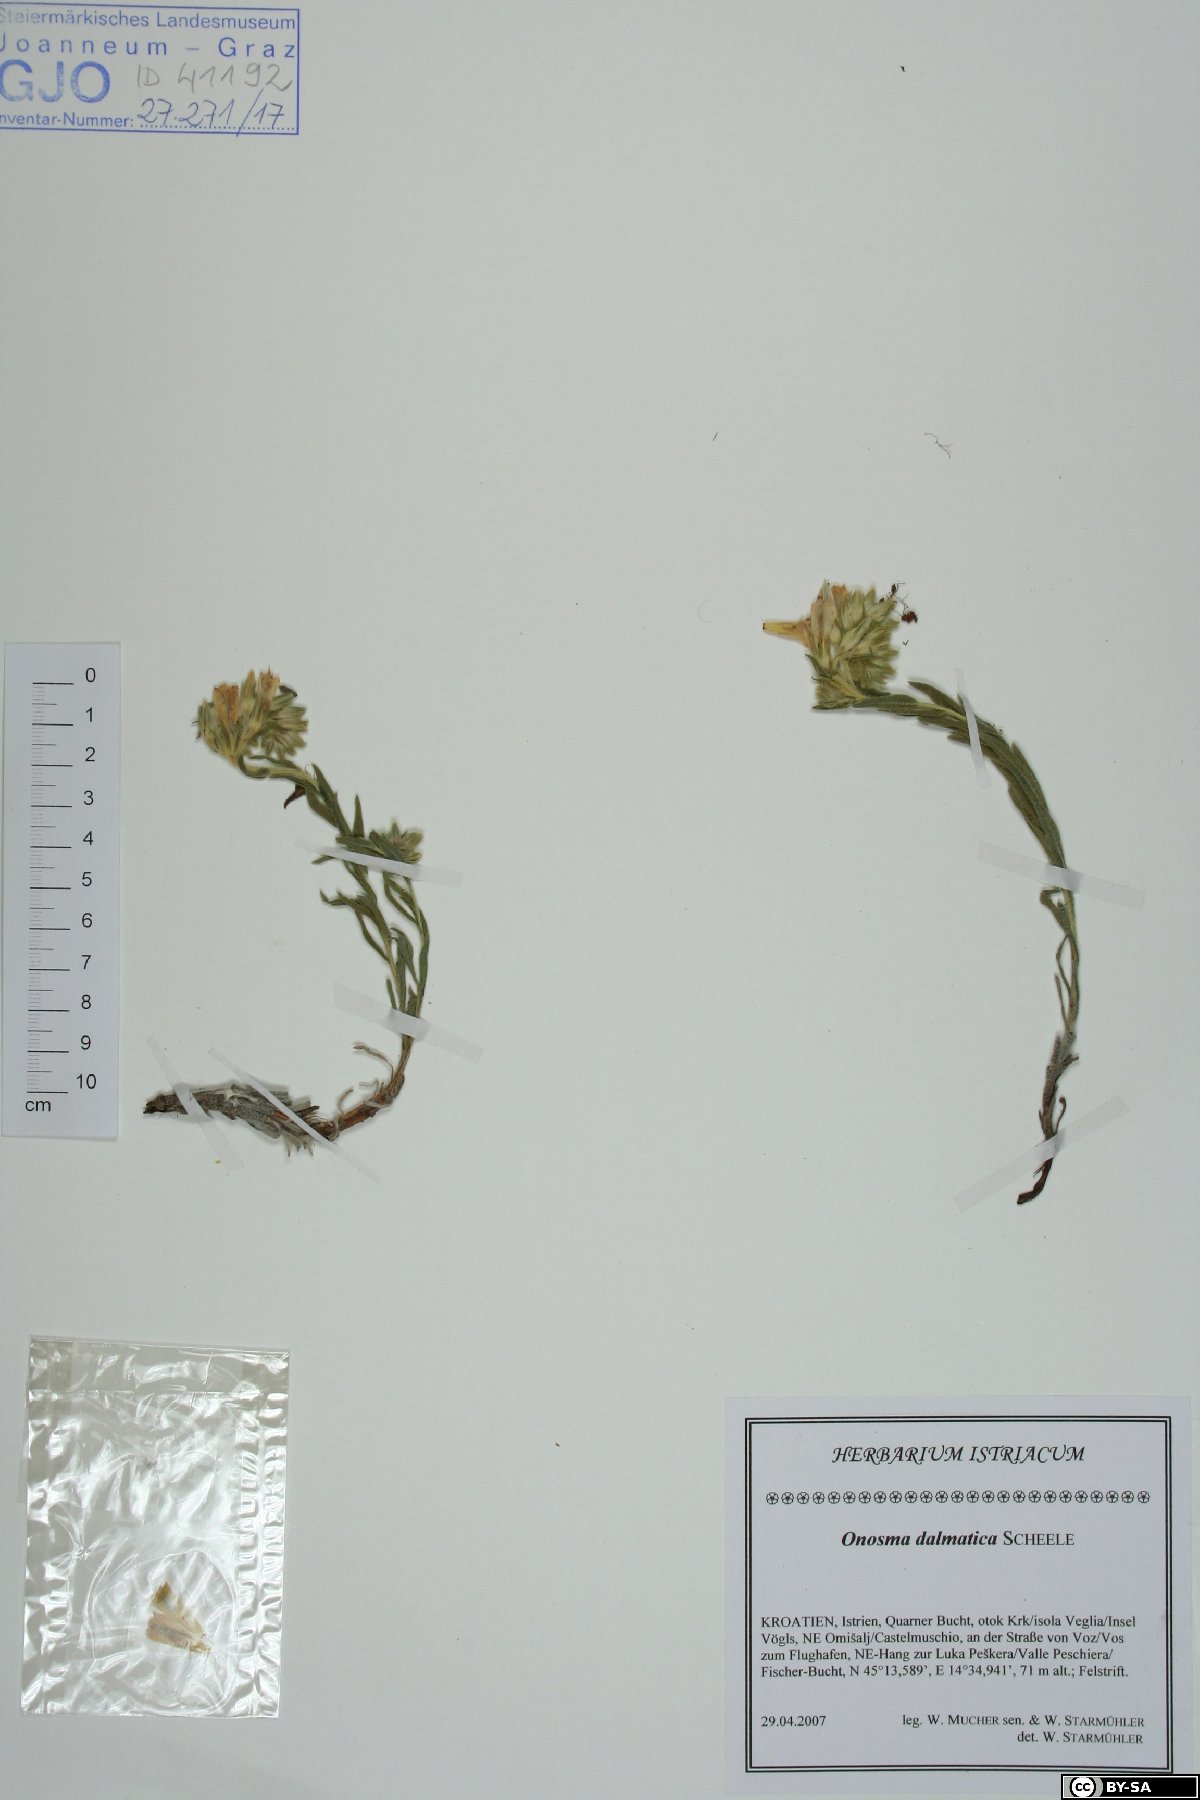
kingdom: Plantae
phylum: Tracheophyta
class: Magnoliopsida
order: Boraginales
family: Boraginaceae
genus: Onosma
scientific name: Onosma echioides
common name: Goldendrop
